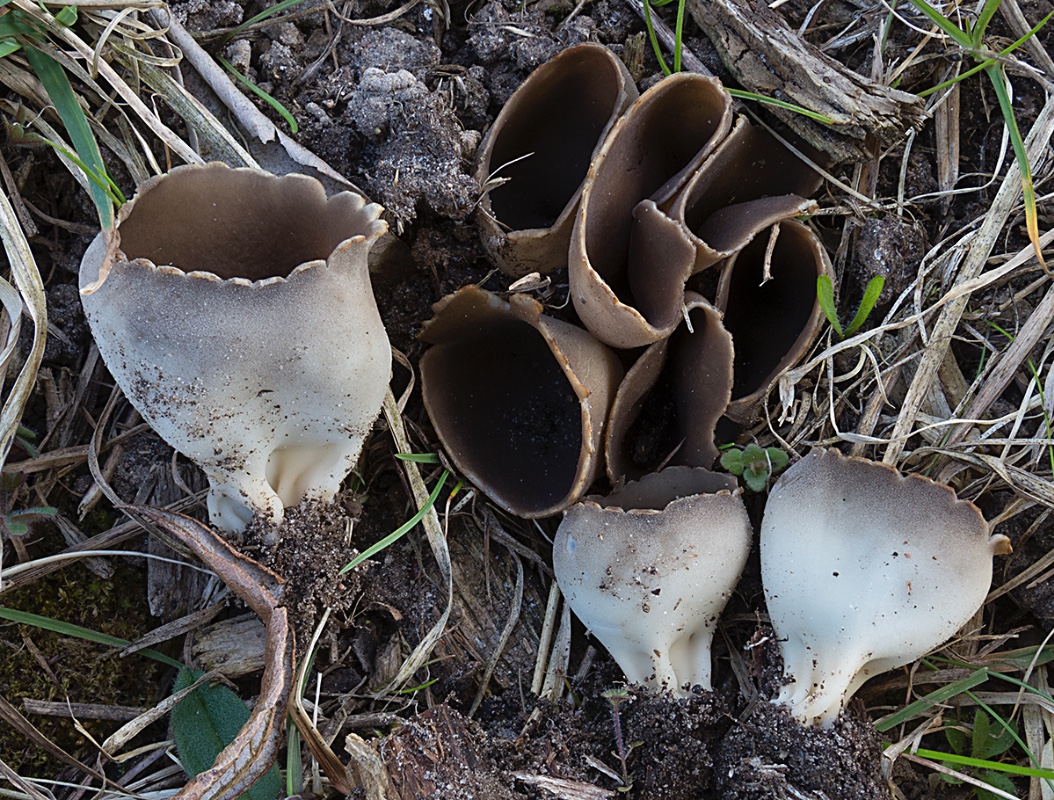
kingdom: Fungi
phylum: Ascomycota
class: Pezizomycetes
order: Pezizales
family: Helvellaceae
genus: Dissingia
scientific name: Dissingia leucomelaena
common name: sorthvid foldhat
